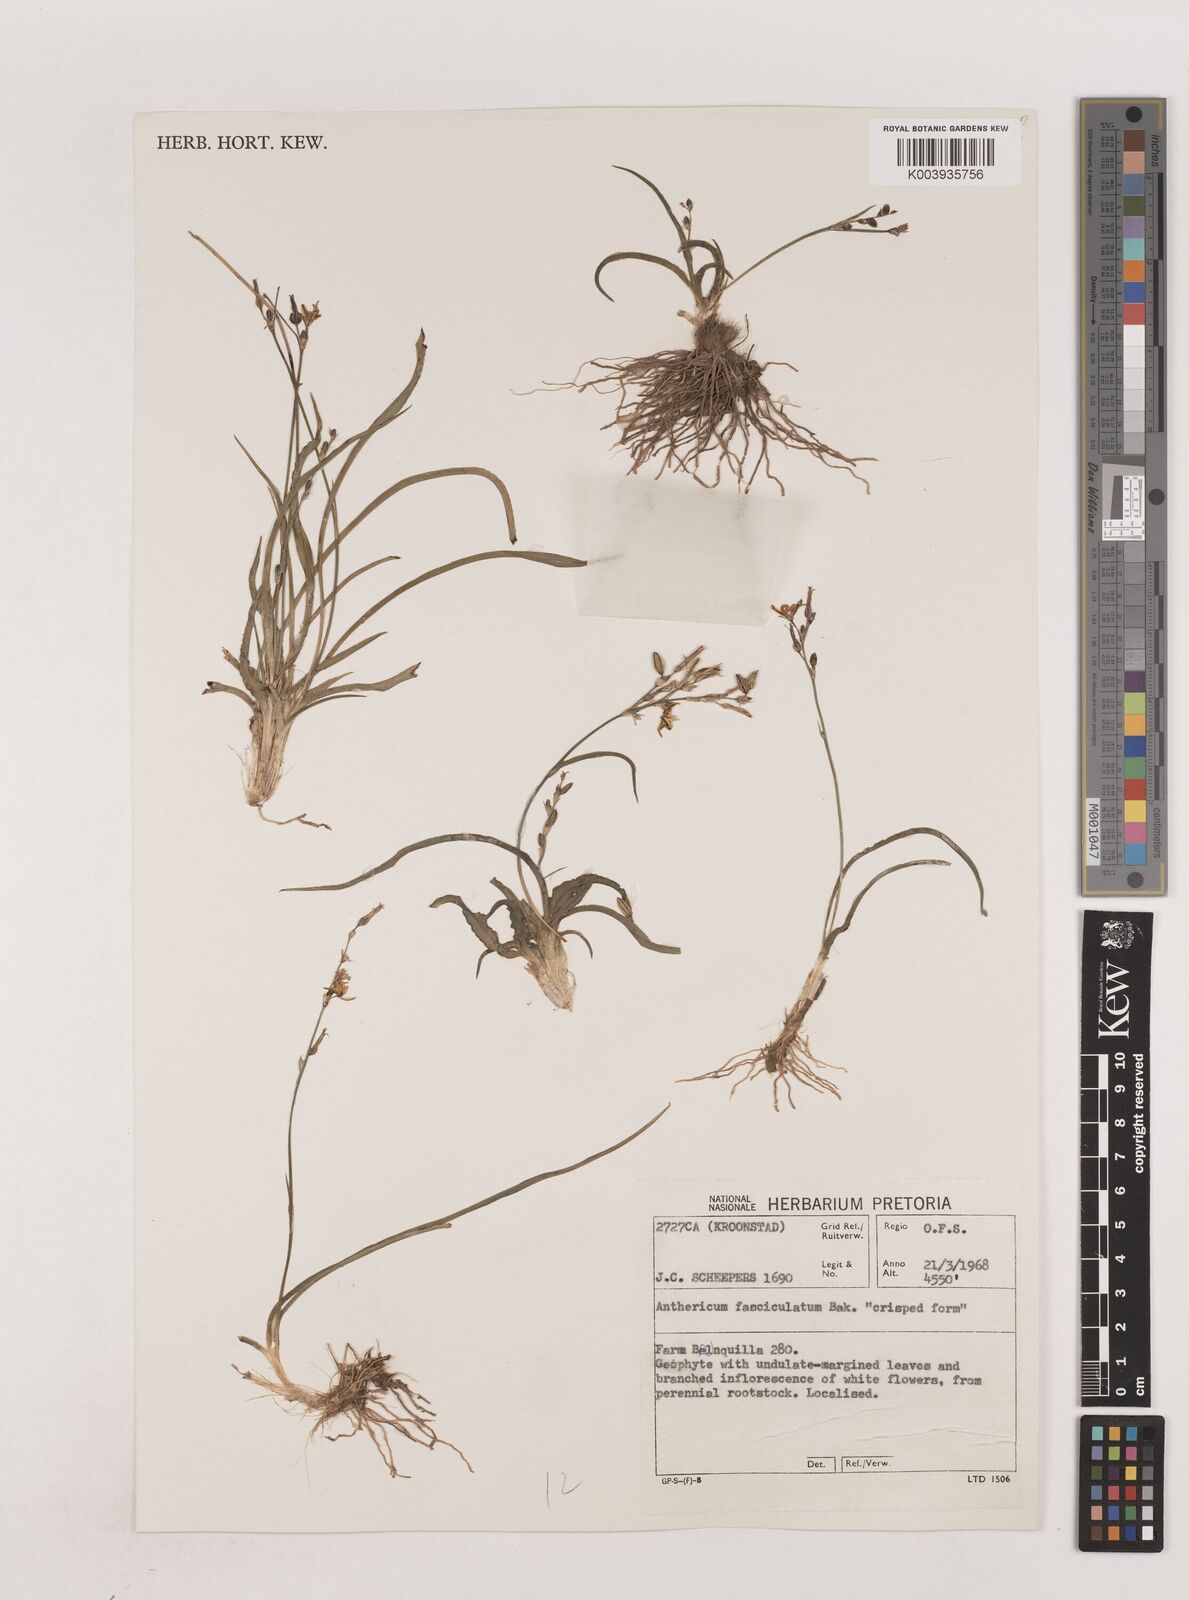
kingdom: Plantae
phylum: Tracheophyta
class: Liliopsida
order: Asparagales
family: Asparagaceae
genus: Chlorophytum
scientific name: Chlorophytum fasciculatum
